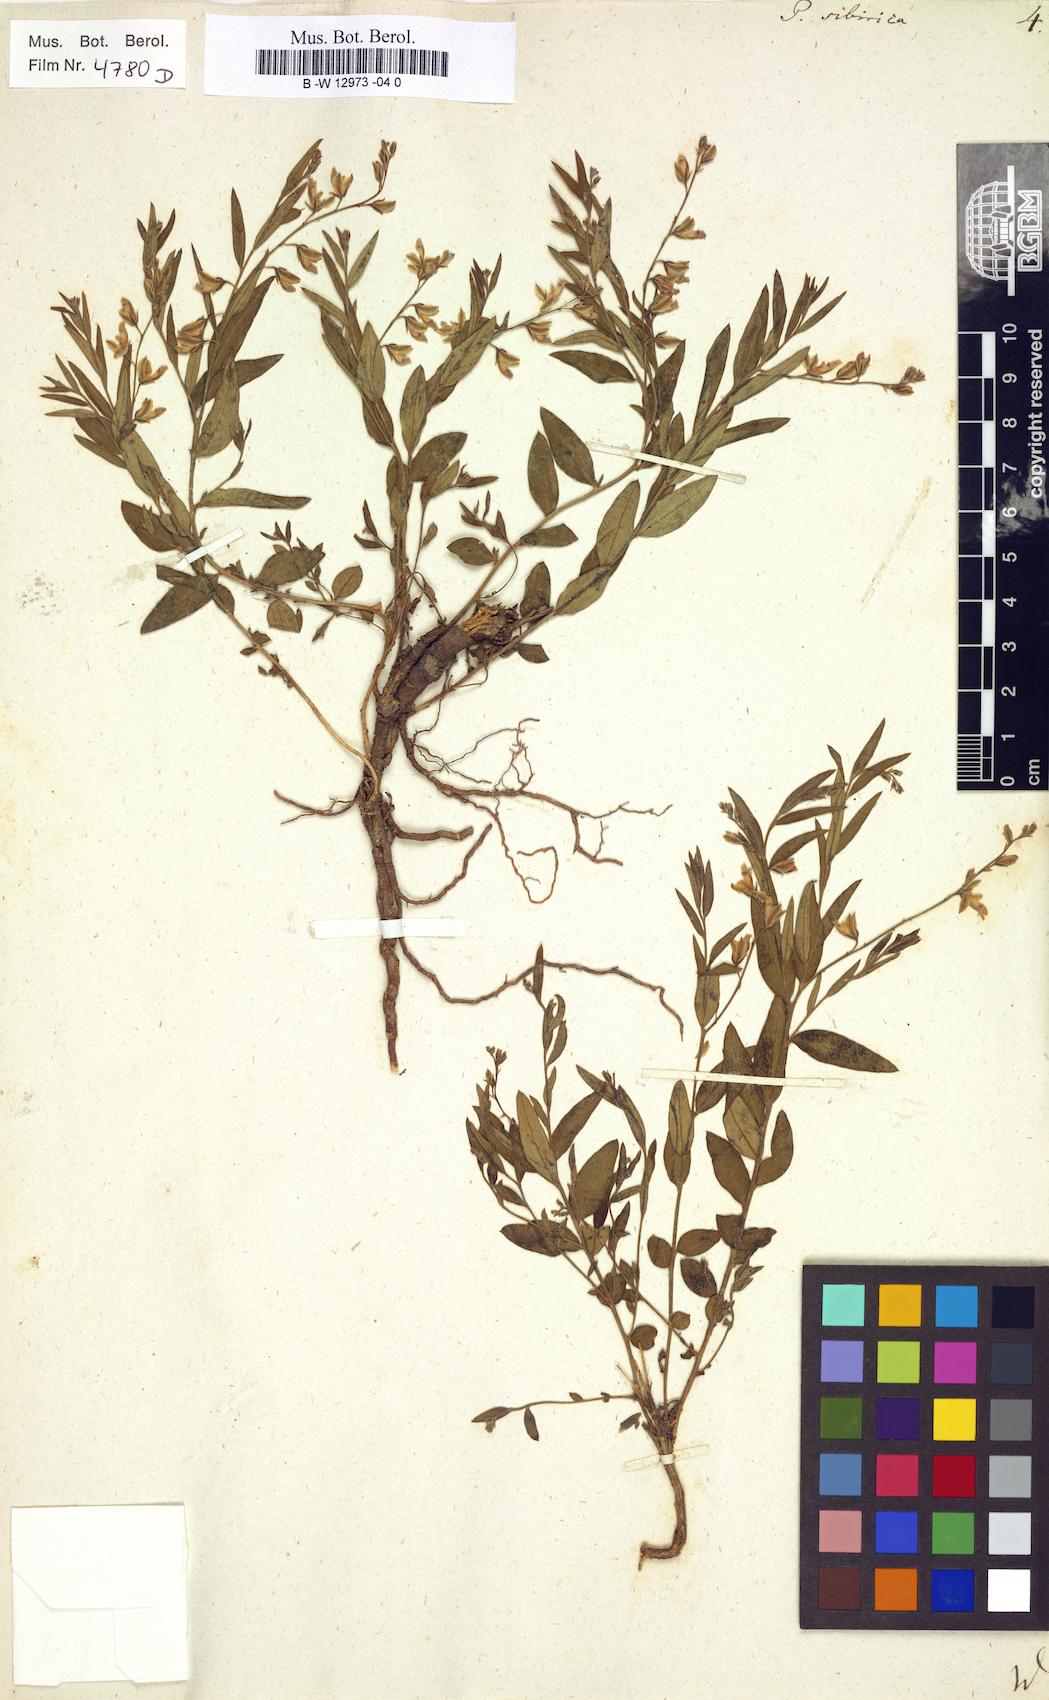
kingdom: Plantae
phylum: Tracheophyta
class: Magnoliopsida
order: Fabales
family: Polygalaceae
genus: Polygala
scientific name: Polygala sibirica
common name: Siberian polygala
